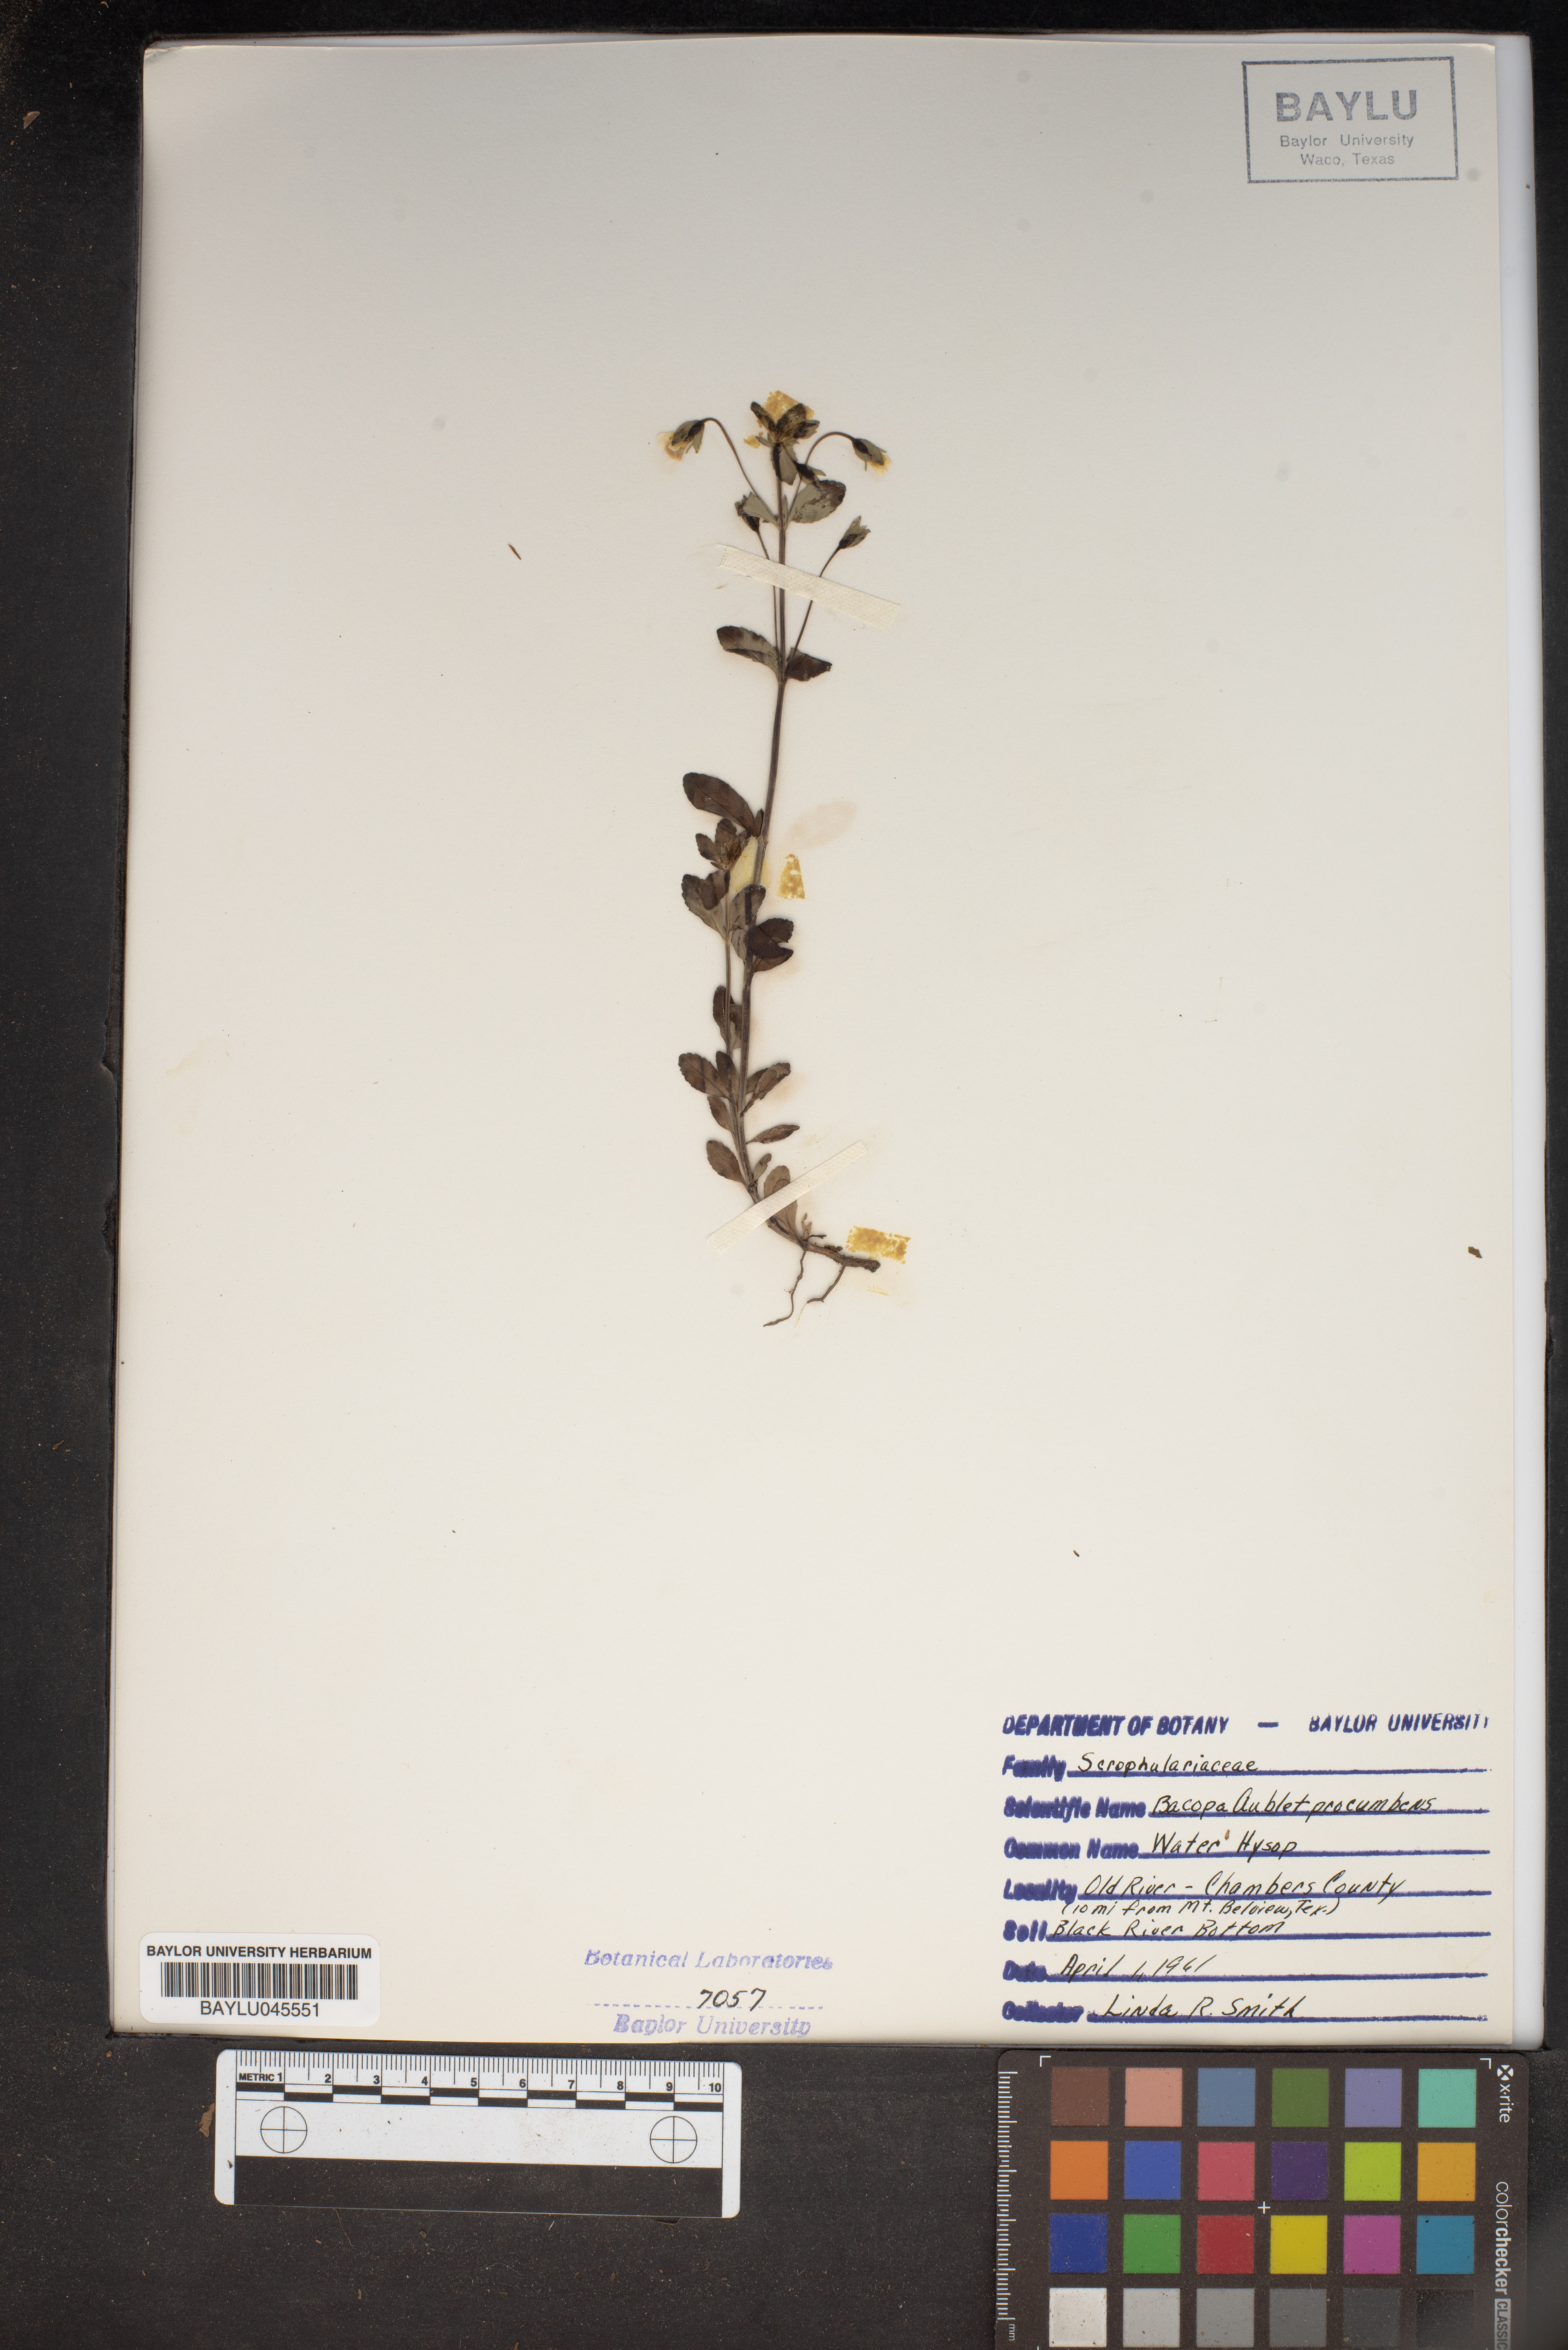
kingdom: Plantae
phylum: Tracheophyta
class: Magnoliopsida
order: Lamiales
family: Plantaginaceae
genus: Mecardonia
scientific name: Mecardonia procumbens
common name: Baby jump-up
